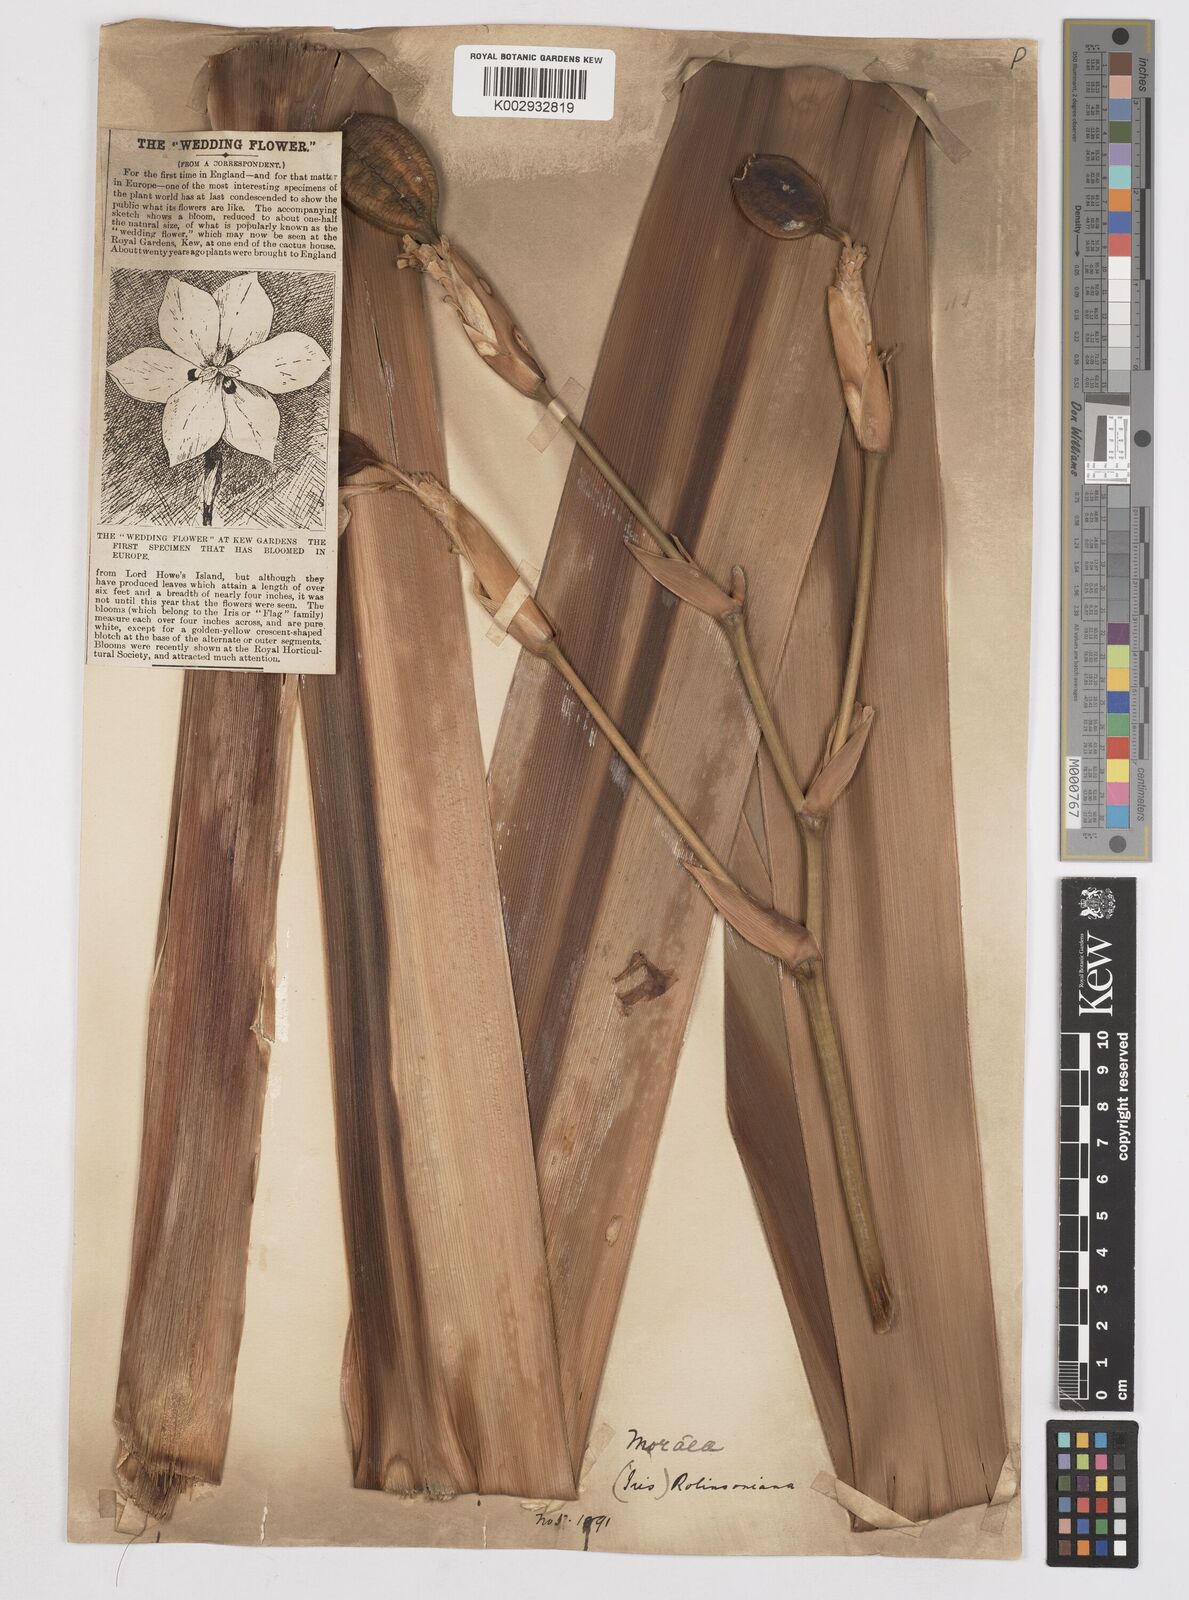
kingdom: Plantae
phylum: Tracheophyta
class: Liliopsida
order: Asparagales
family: Iridaceae
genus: Dietes
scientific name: Dietes robinsoniana
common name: Wedding-lily
